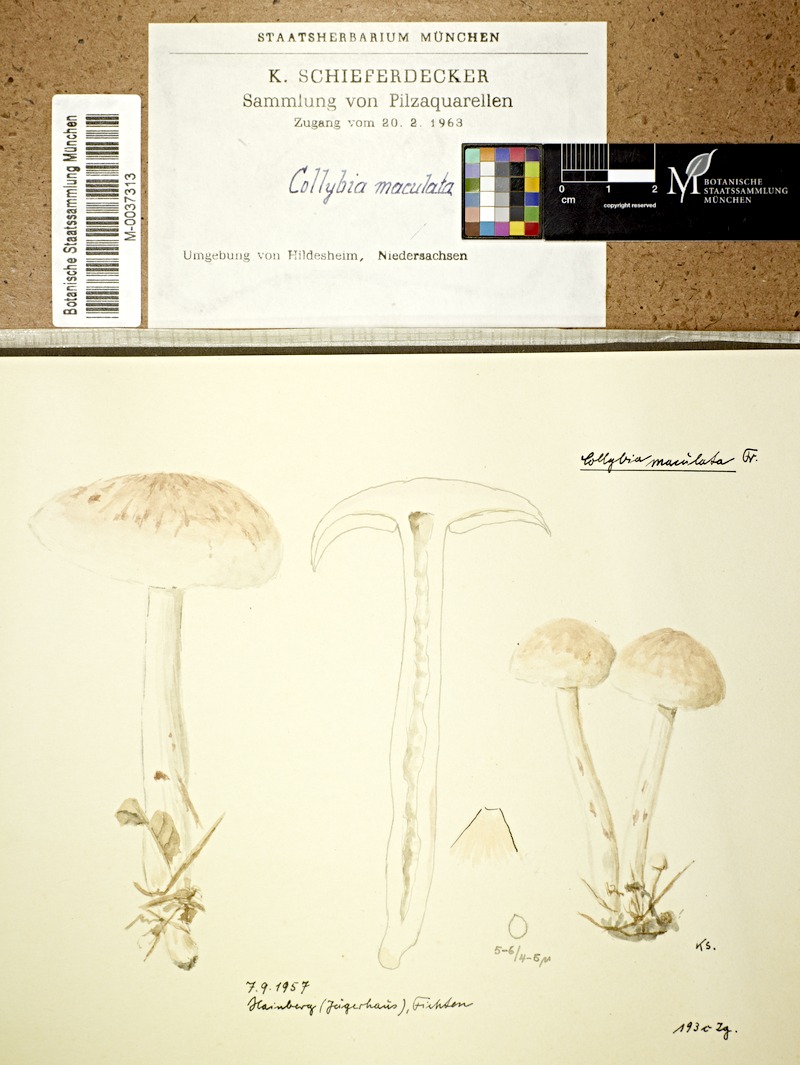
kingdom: Fungi
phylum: Basidiomycota
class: Agaricomycetes
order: Agaricales
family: Omphalotaceae
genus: Rhodocollybia
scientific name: Rhodocollybia maculata
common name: Spotted tough-shank
